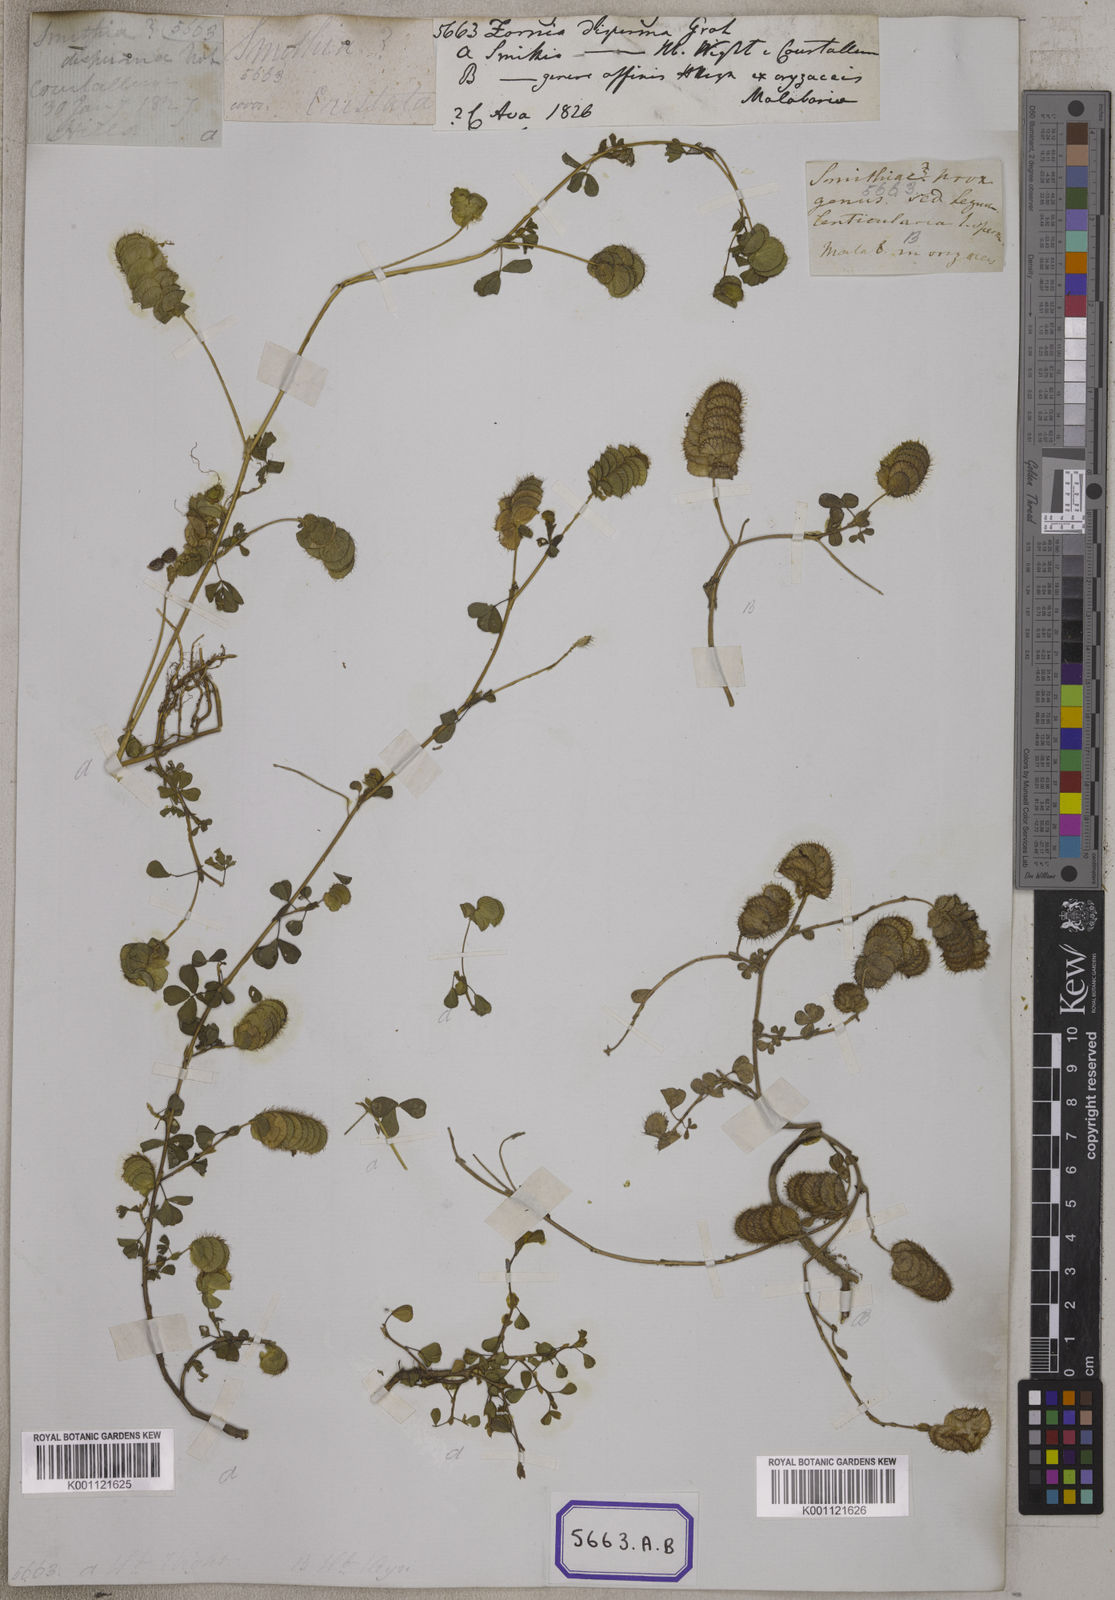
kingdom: Plantae
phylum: Tracheophyta
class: Magnoliopsida
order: Fabales
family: Fabaceae
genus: Geissaspis
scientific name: Geissaspis cristata
